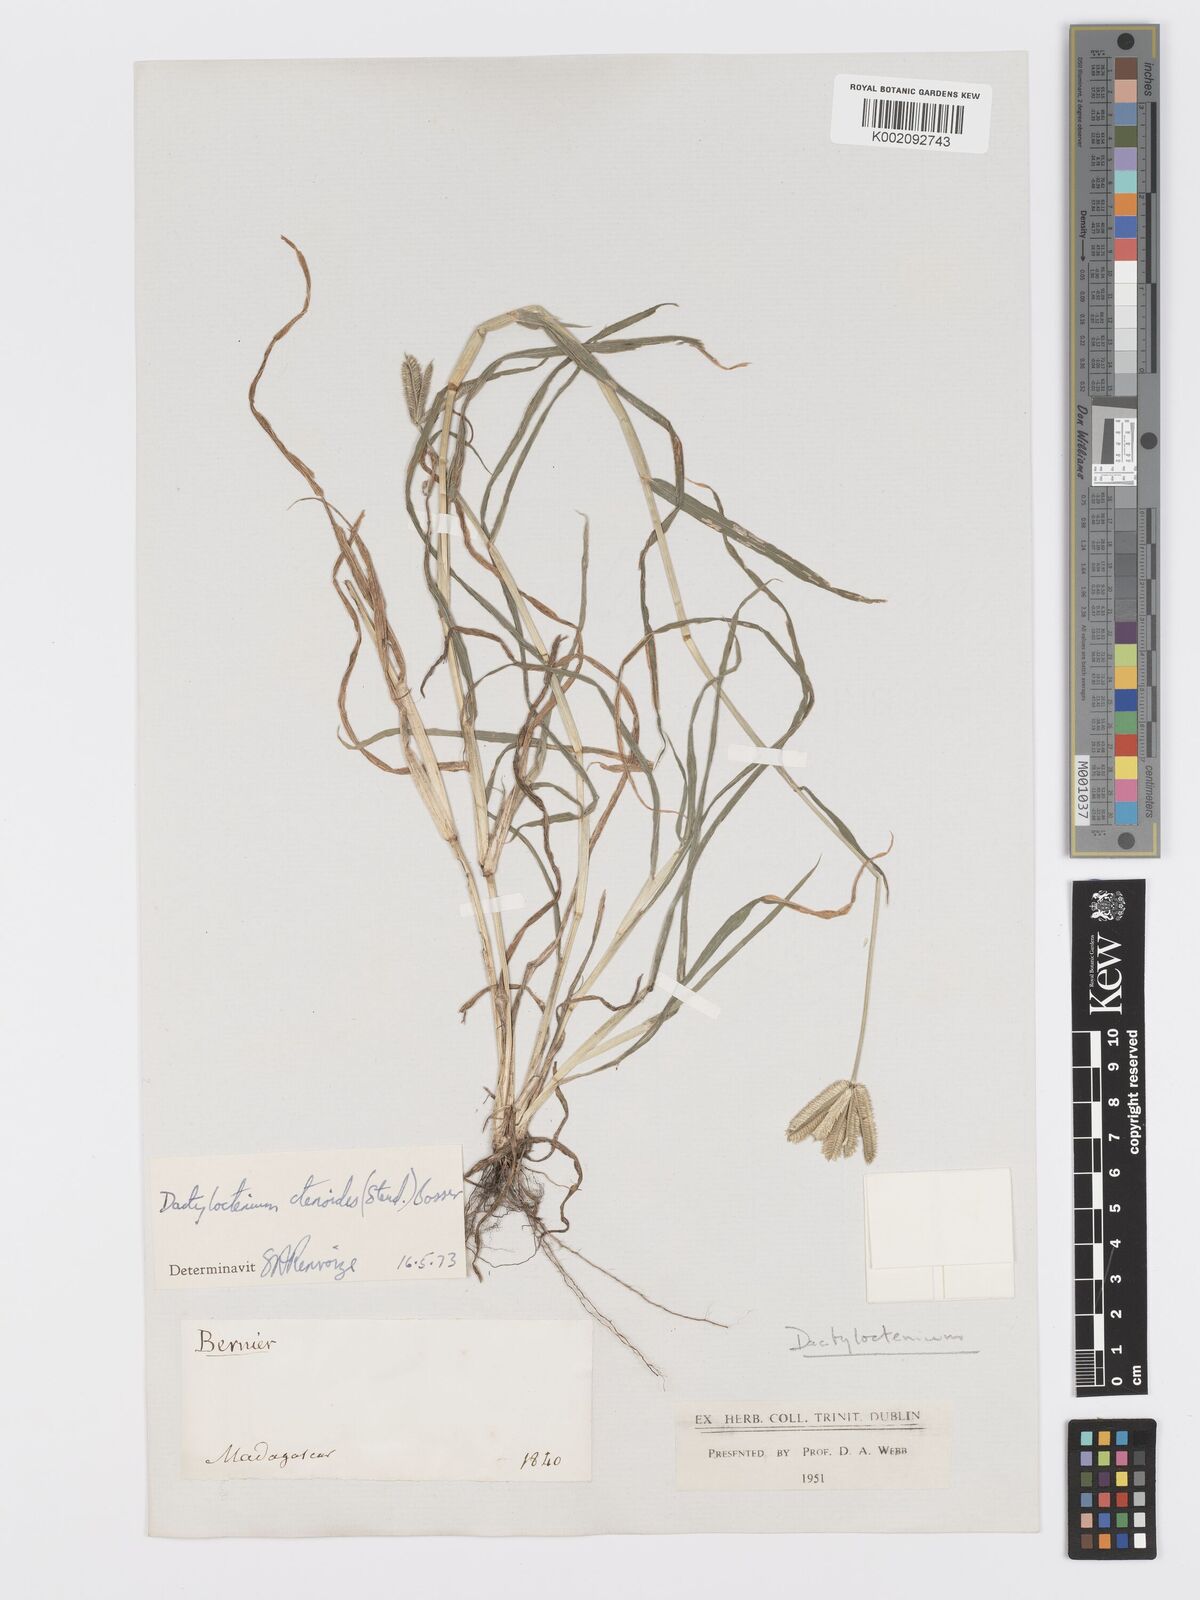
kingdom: Plantae
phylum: Tracheophyta
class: Liliopsida
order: Poales
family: Poaceae
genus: Dactyloctenium
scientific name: Dactyloctenium ctenoides
